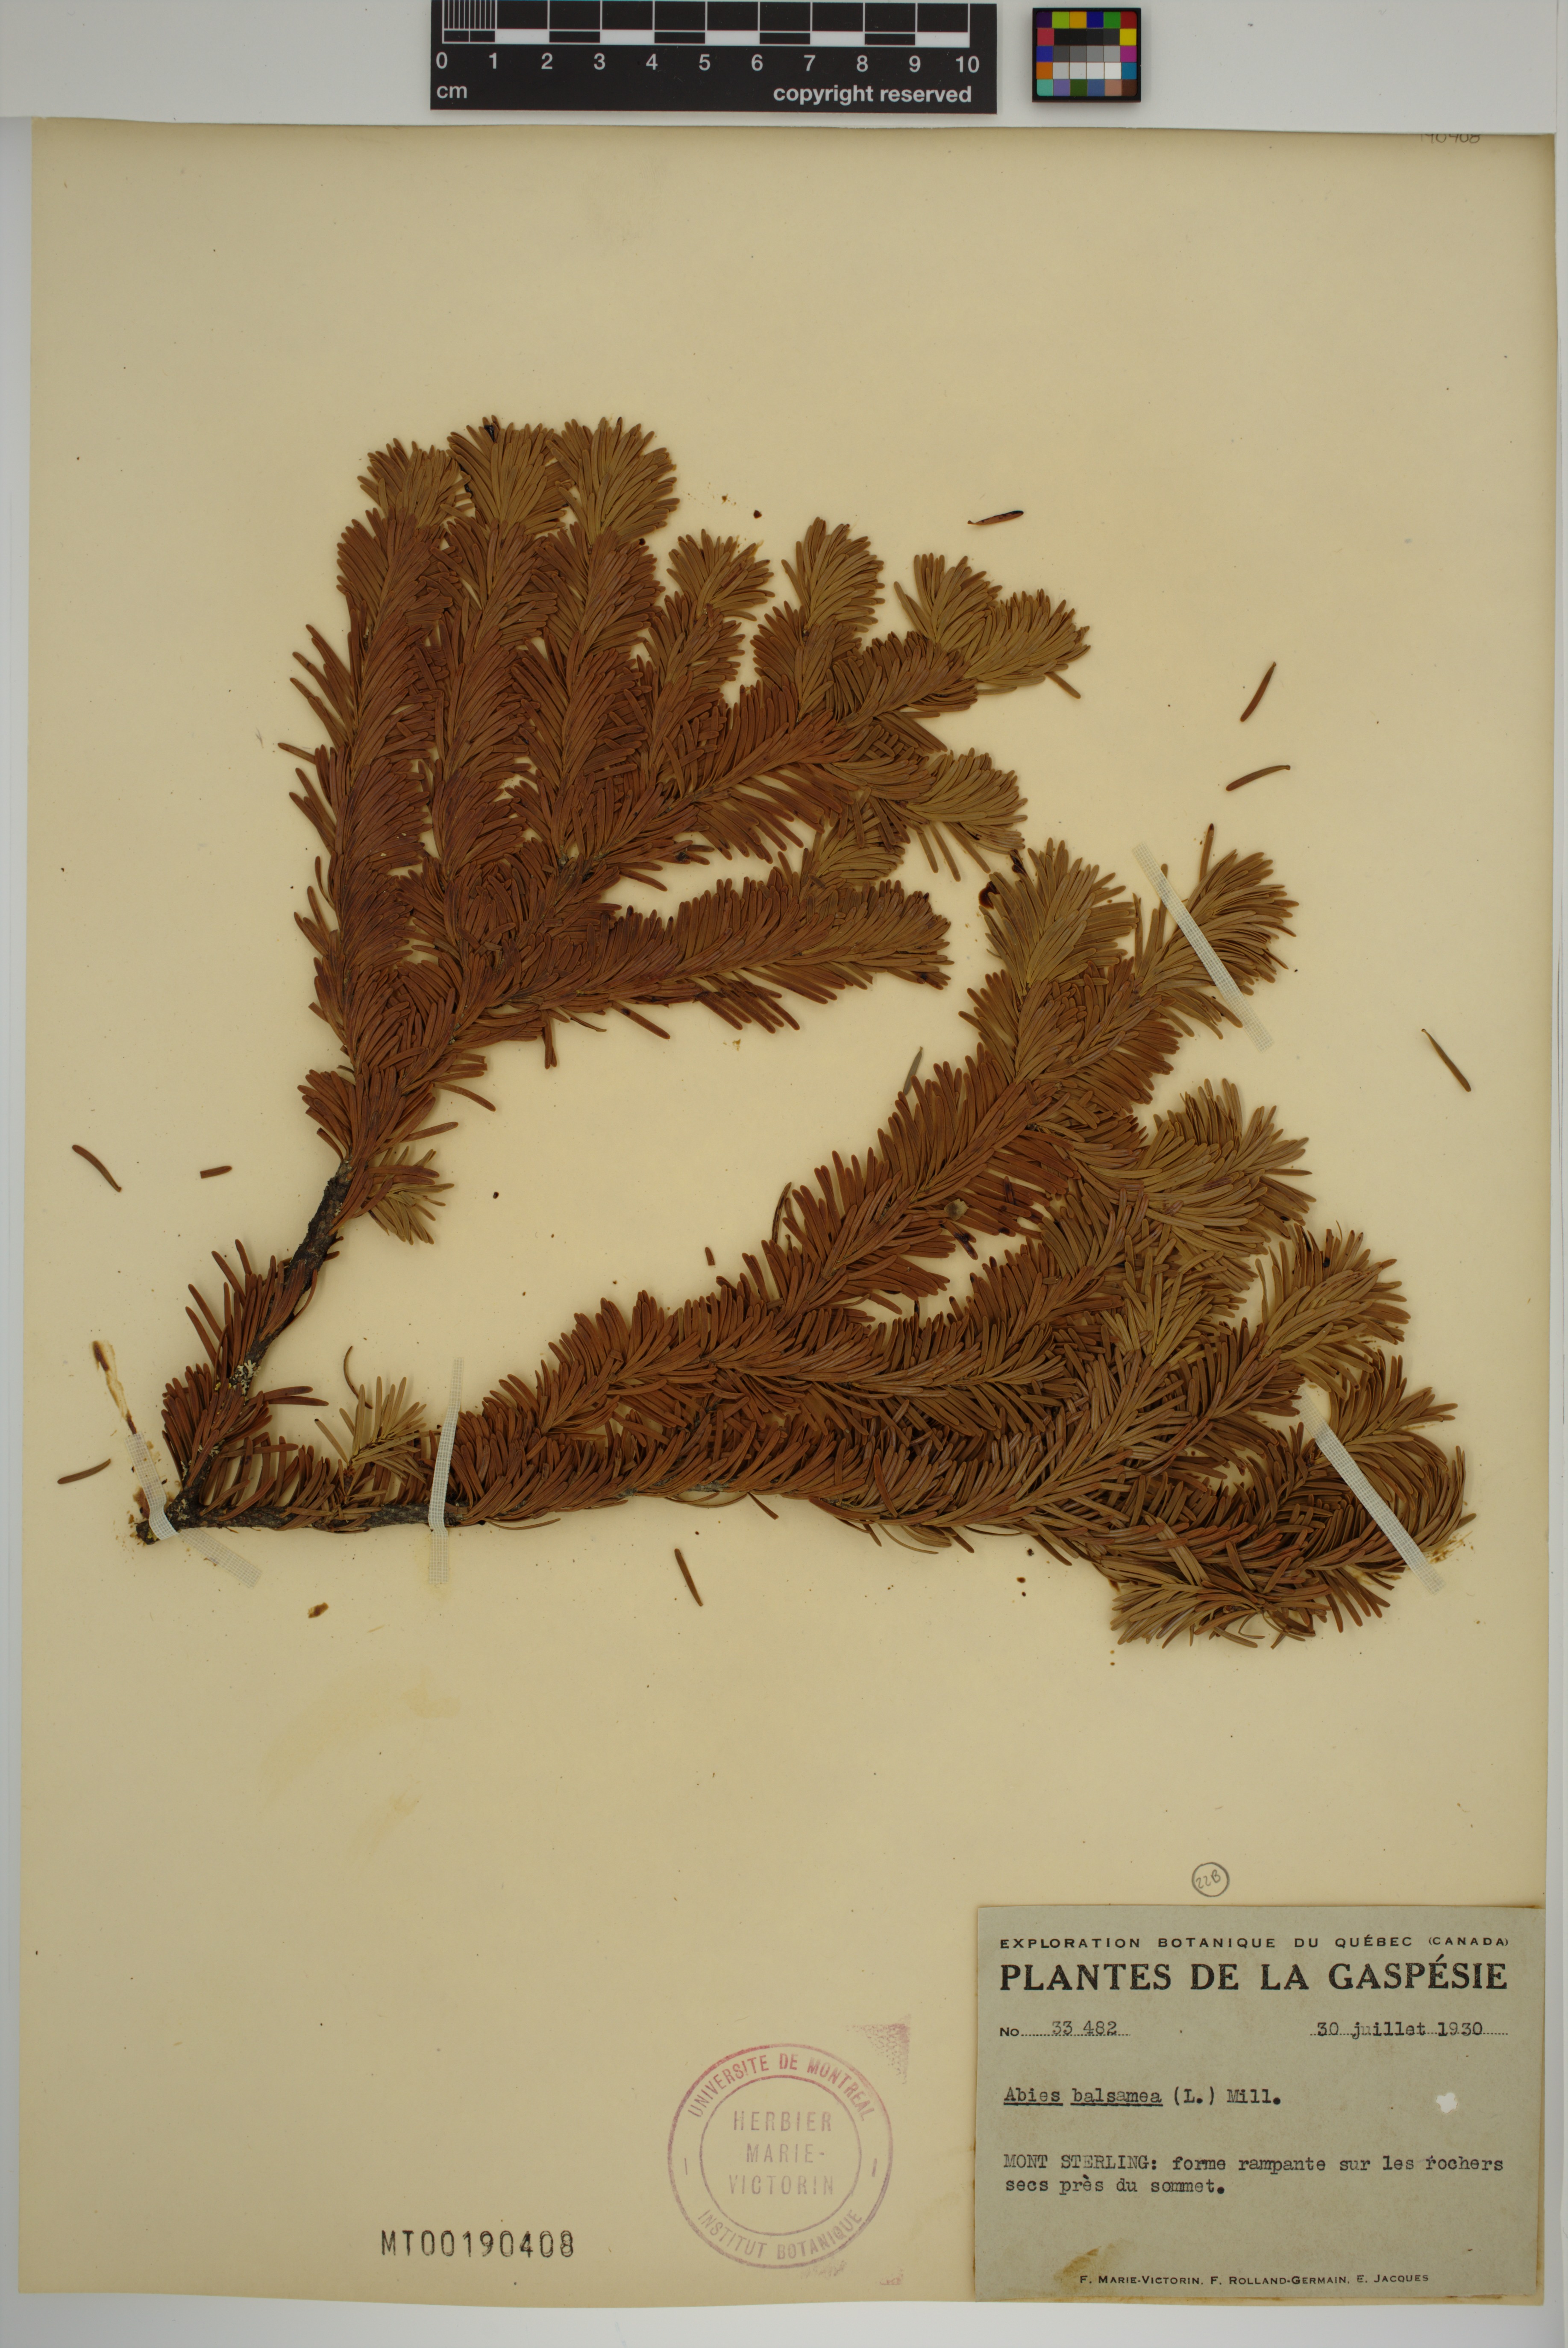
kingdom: Plantae
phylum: Tracheophyta
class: Pinopsida
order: Pinales
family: Pinaceae
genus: Abies
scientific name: Abies balsamea
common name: Balsam fir
